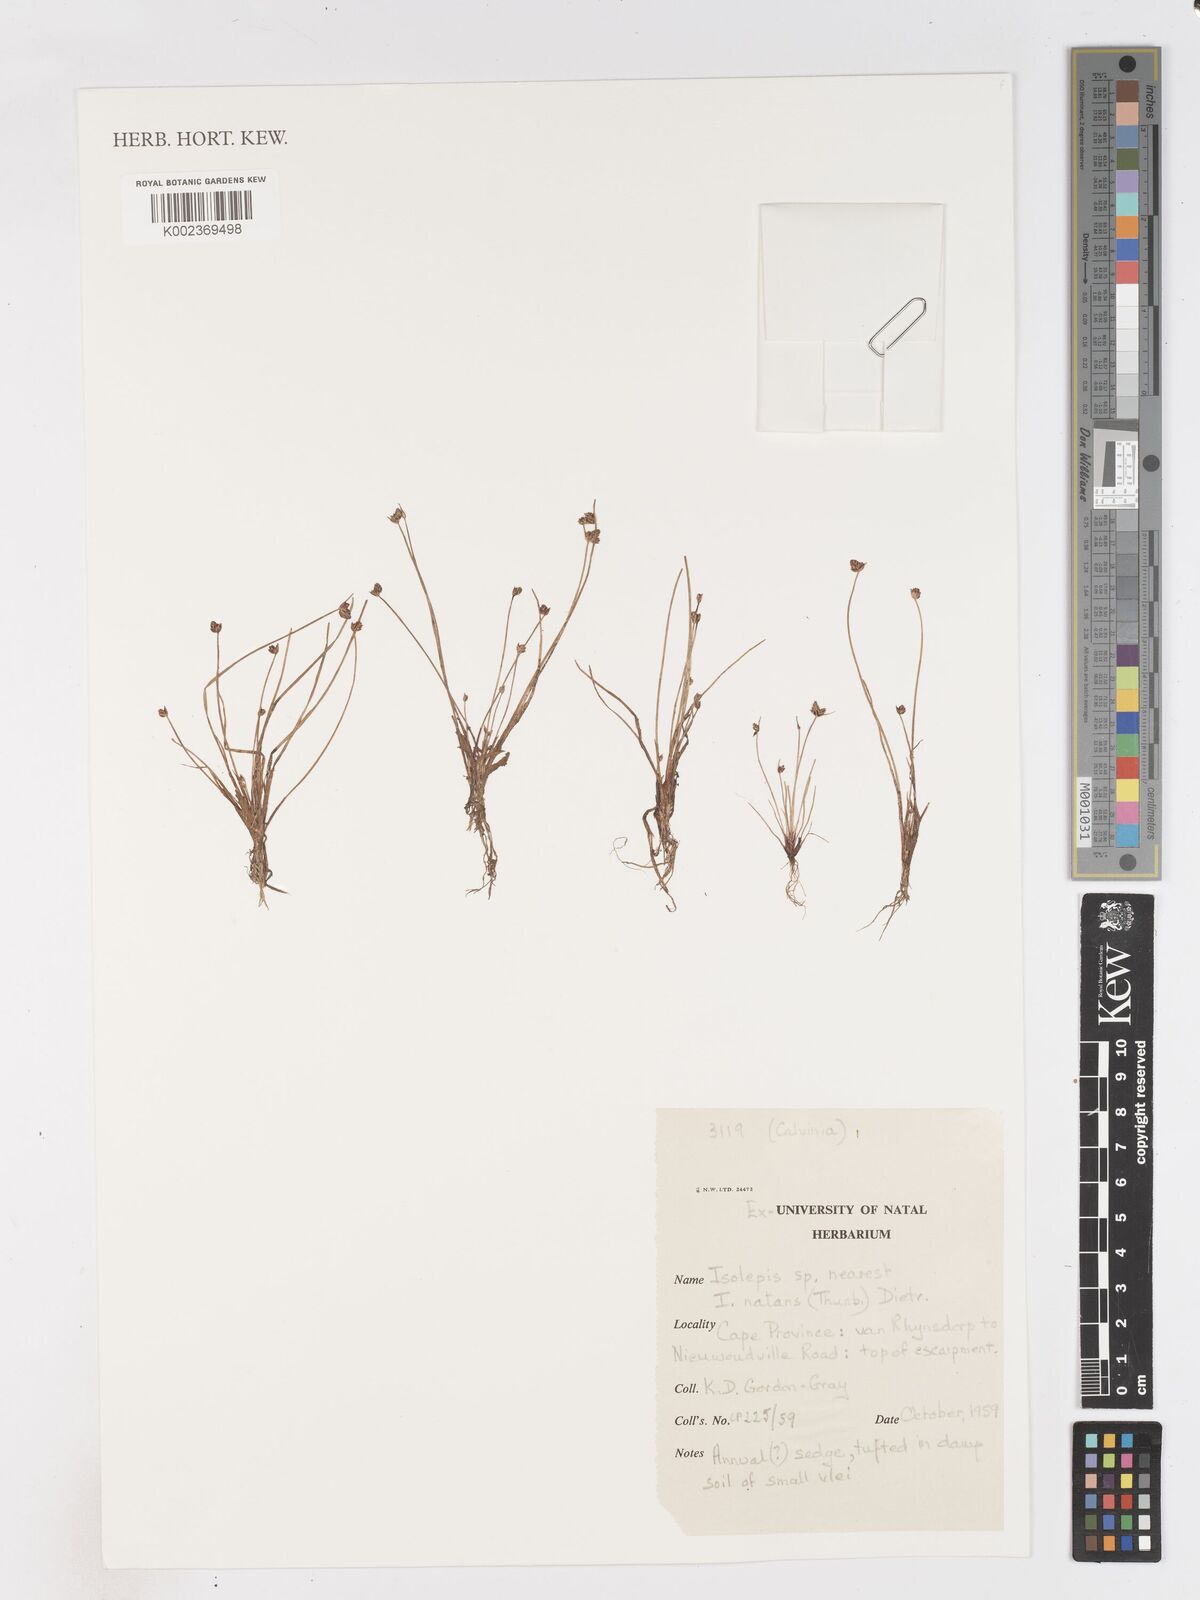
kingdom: Plantae
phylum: Tracheophyta
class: Liliopsida
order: Poales
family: Cyperaceae
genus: Isolepis
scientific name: Isolepis natans
